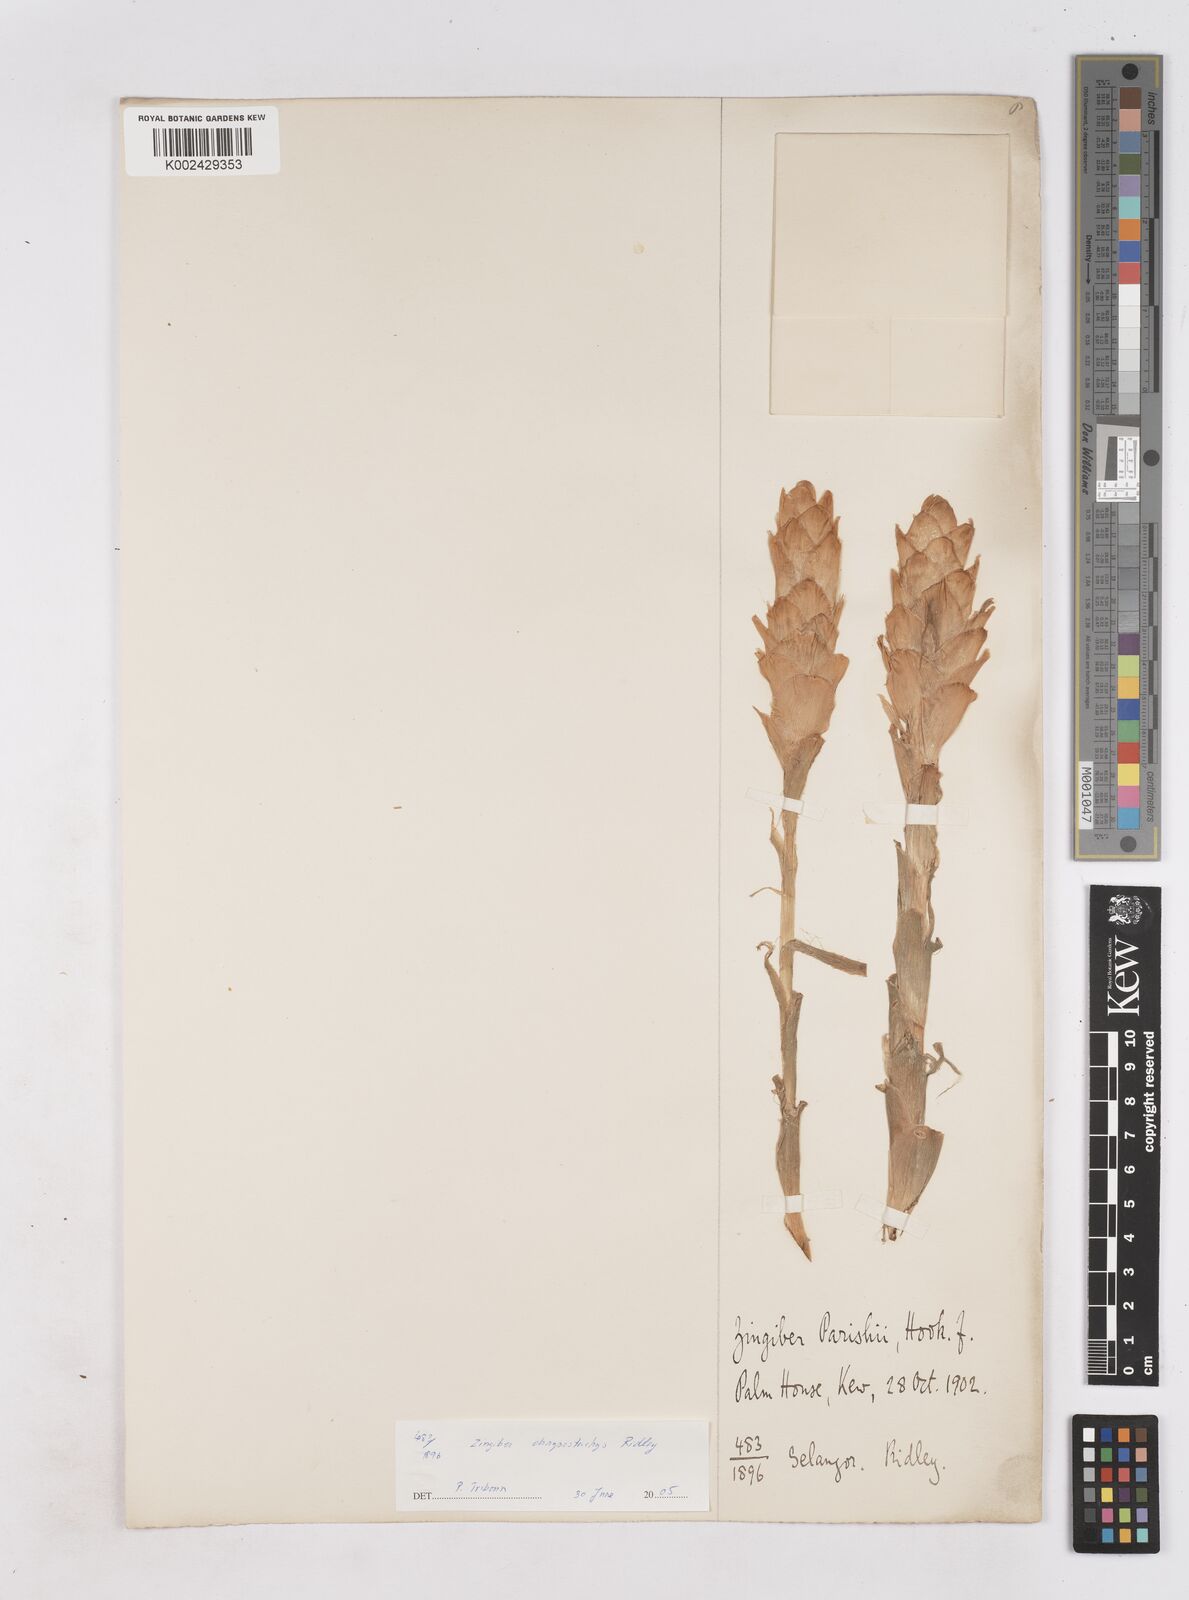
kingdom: Plantae
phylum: Tracheophyta
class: Liliopsida
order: Zingiberales
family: Zingiberaceae
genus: Zingiber
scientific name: Zingiber spectabile
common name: Beehive ginger
